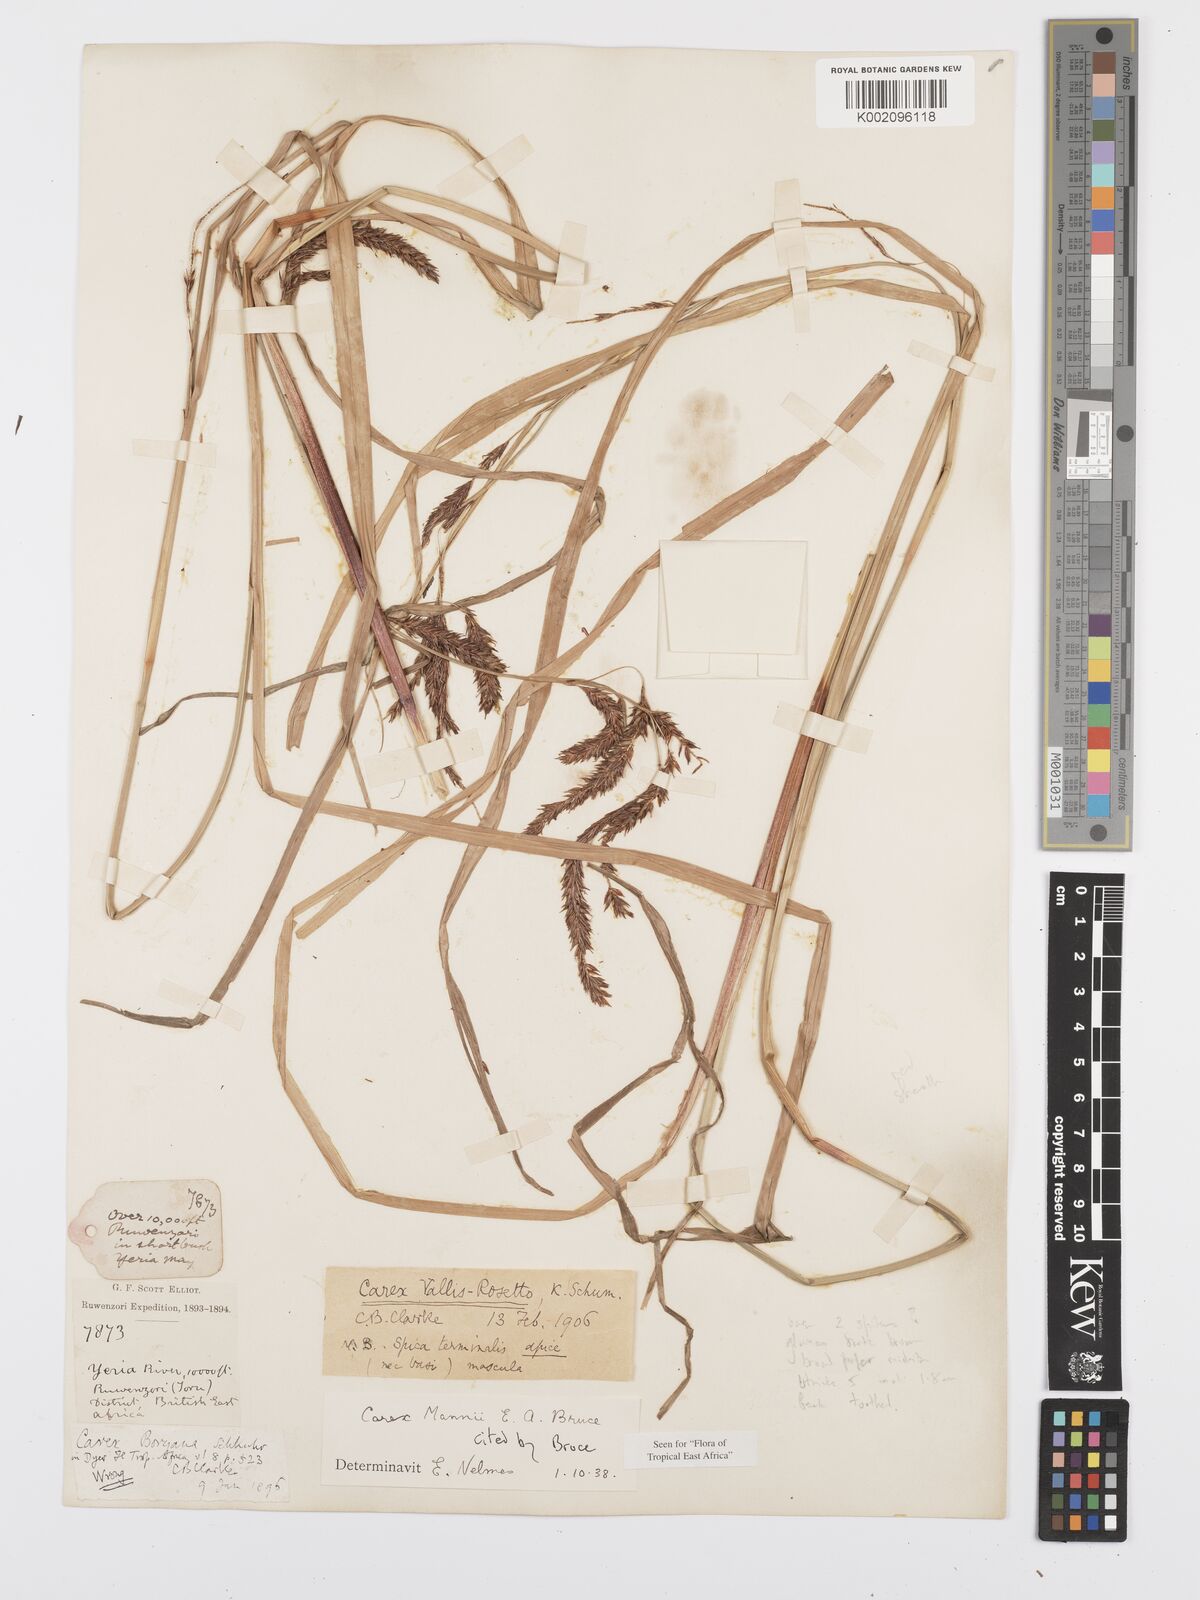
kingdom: Plantae
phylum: Tracheophyta
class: Liliopsida
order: Poales
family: Cyperaceae
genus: Carex
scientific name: Carex mannii
